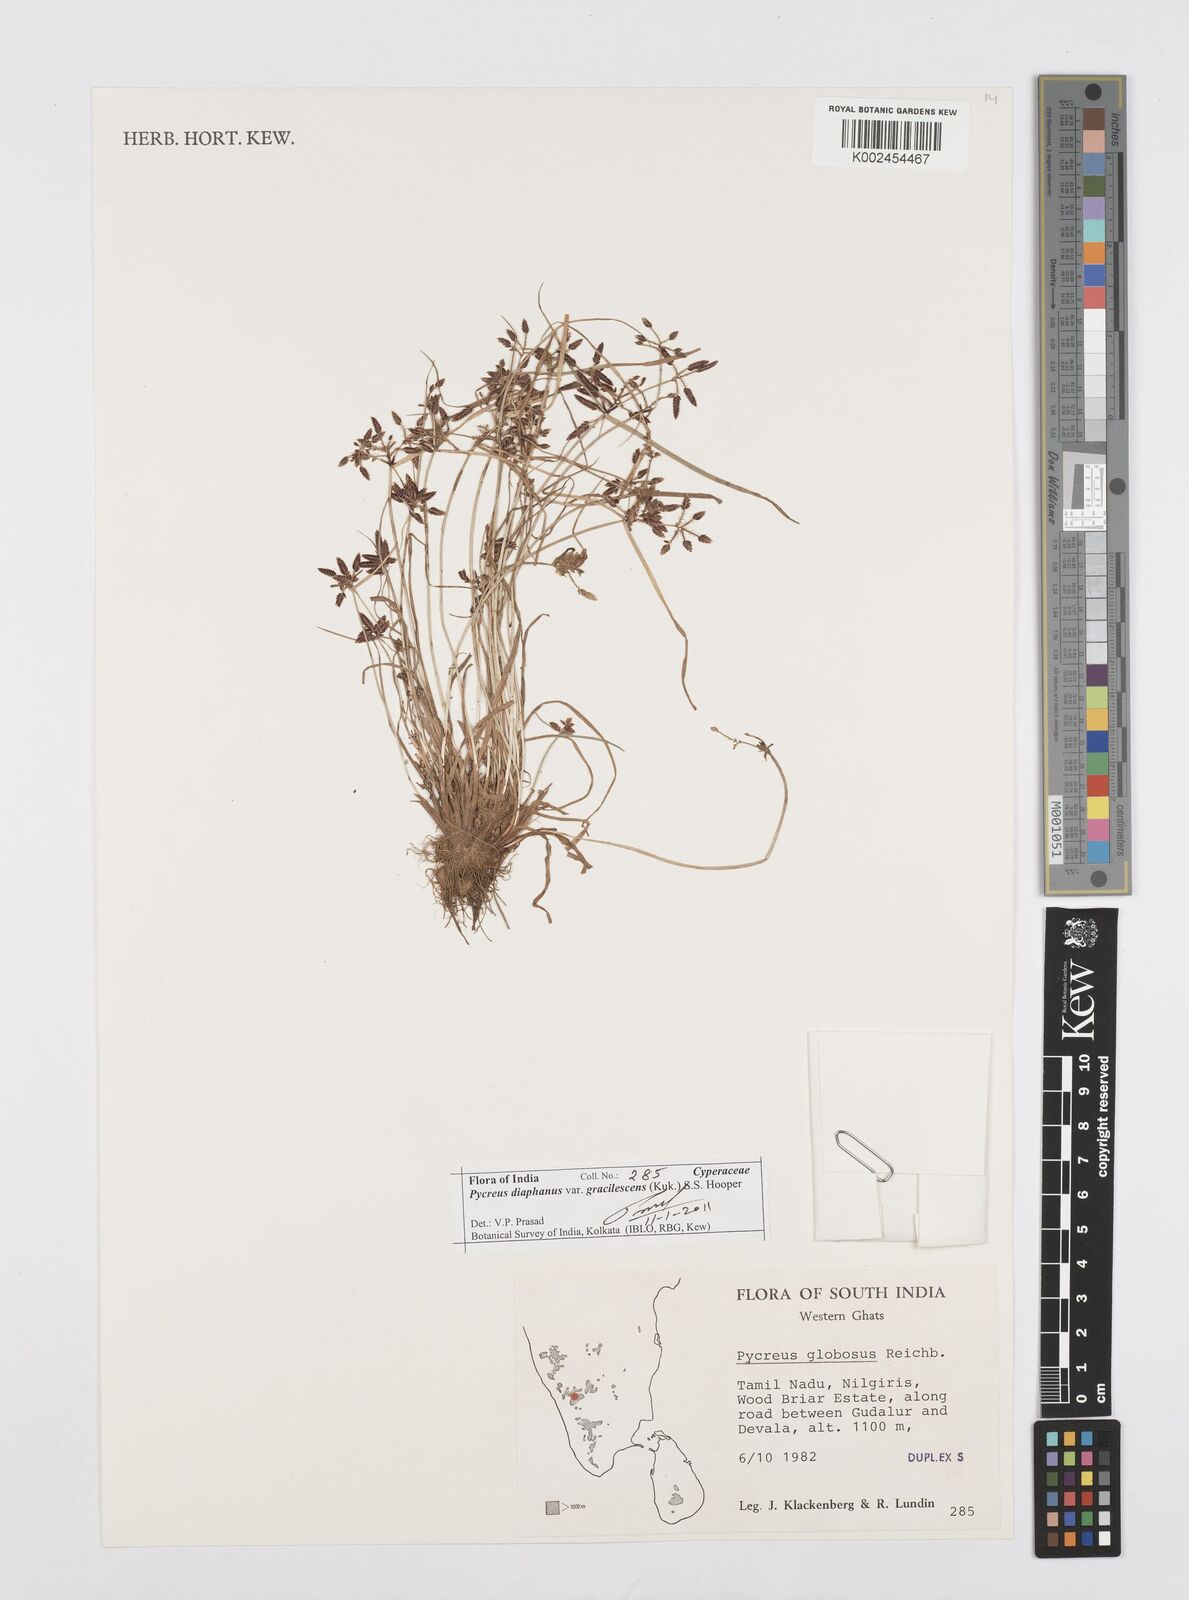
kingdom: Plantae
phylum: Tracheophyta
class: Liliopsida
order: Poales
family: Cyperaceae
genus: Cyperus
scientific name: Cyperus diaphanus
